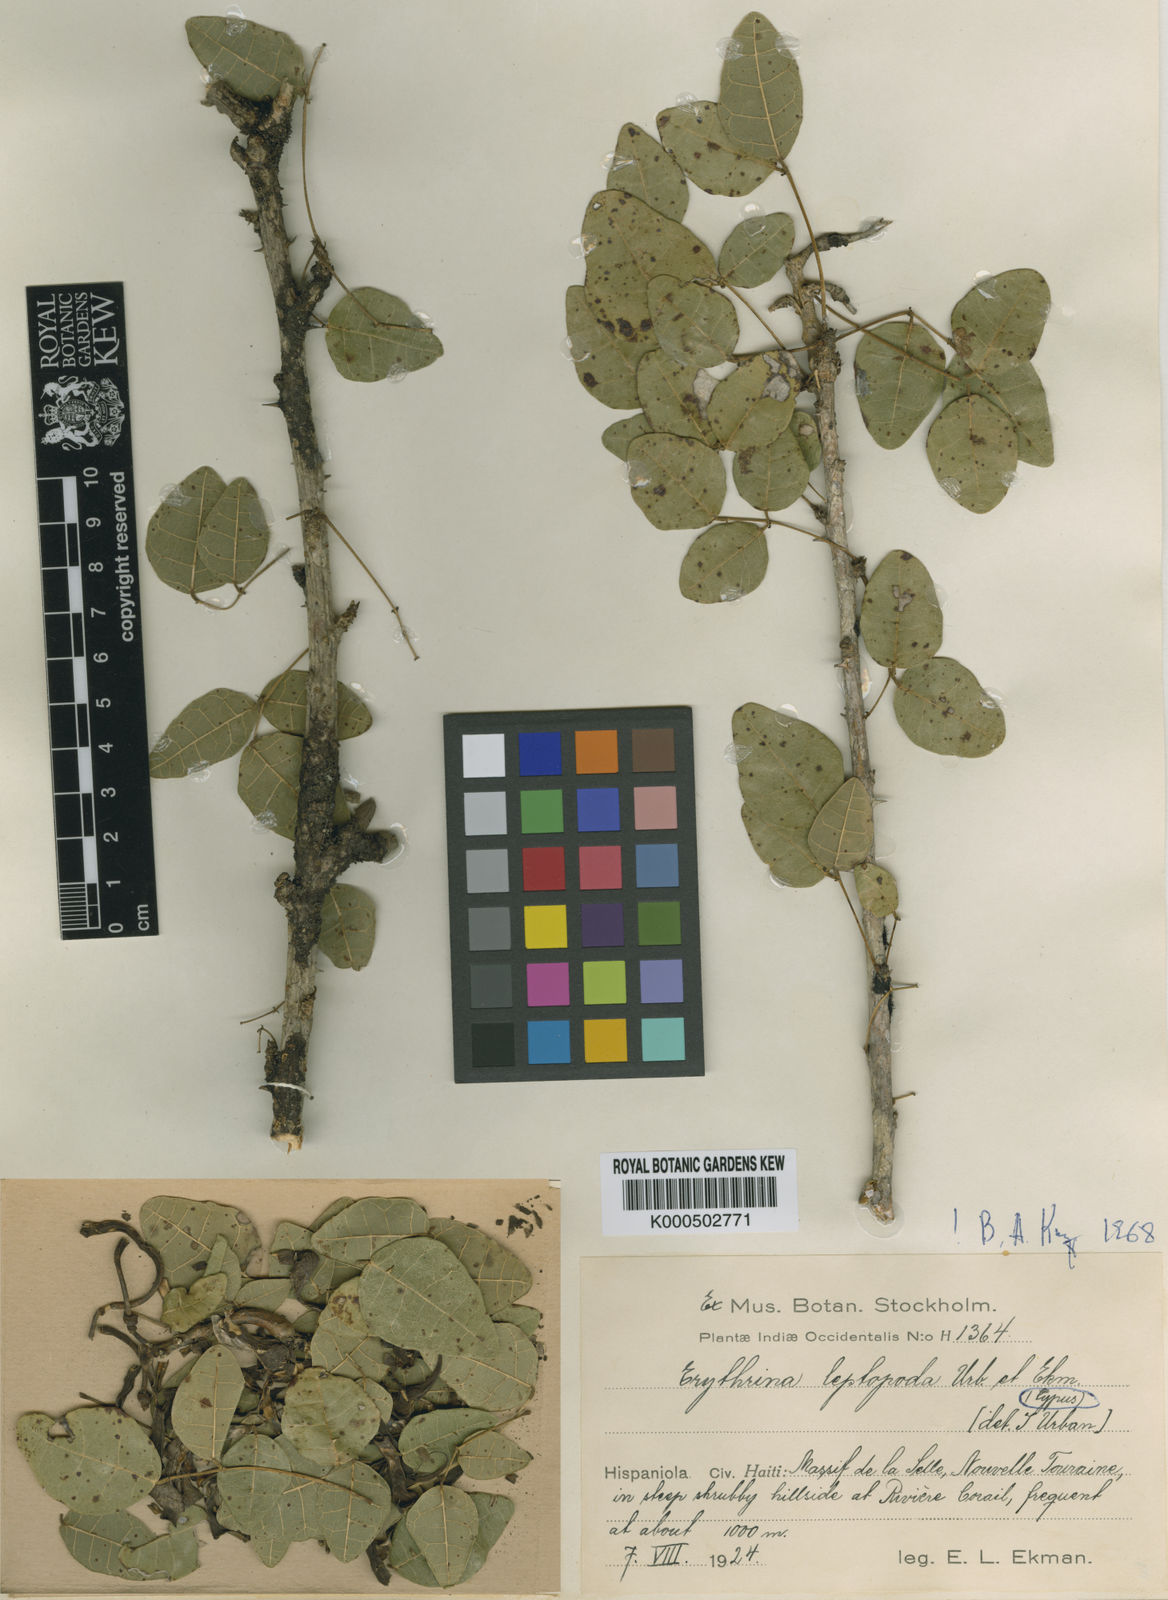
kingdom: Plantae
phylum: Tracheophyta
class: Magnoliopsida
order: Fabales
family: Fabaceae
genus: Erythrina
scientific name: Erythrina leptopoda
